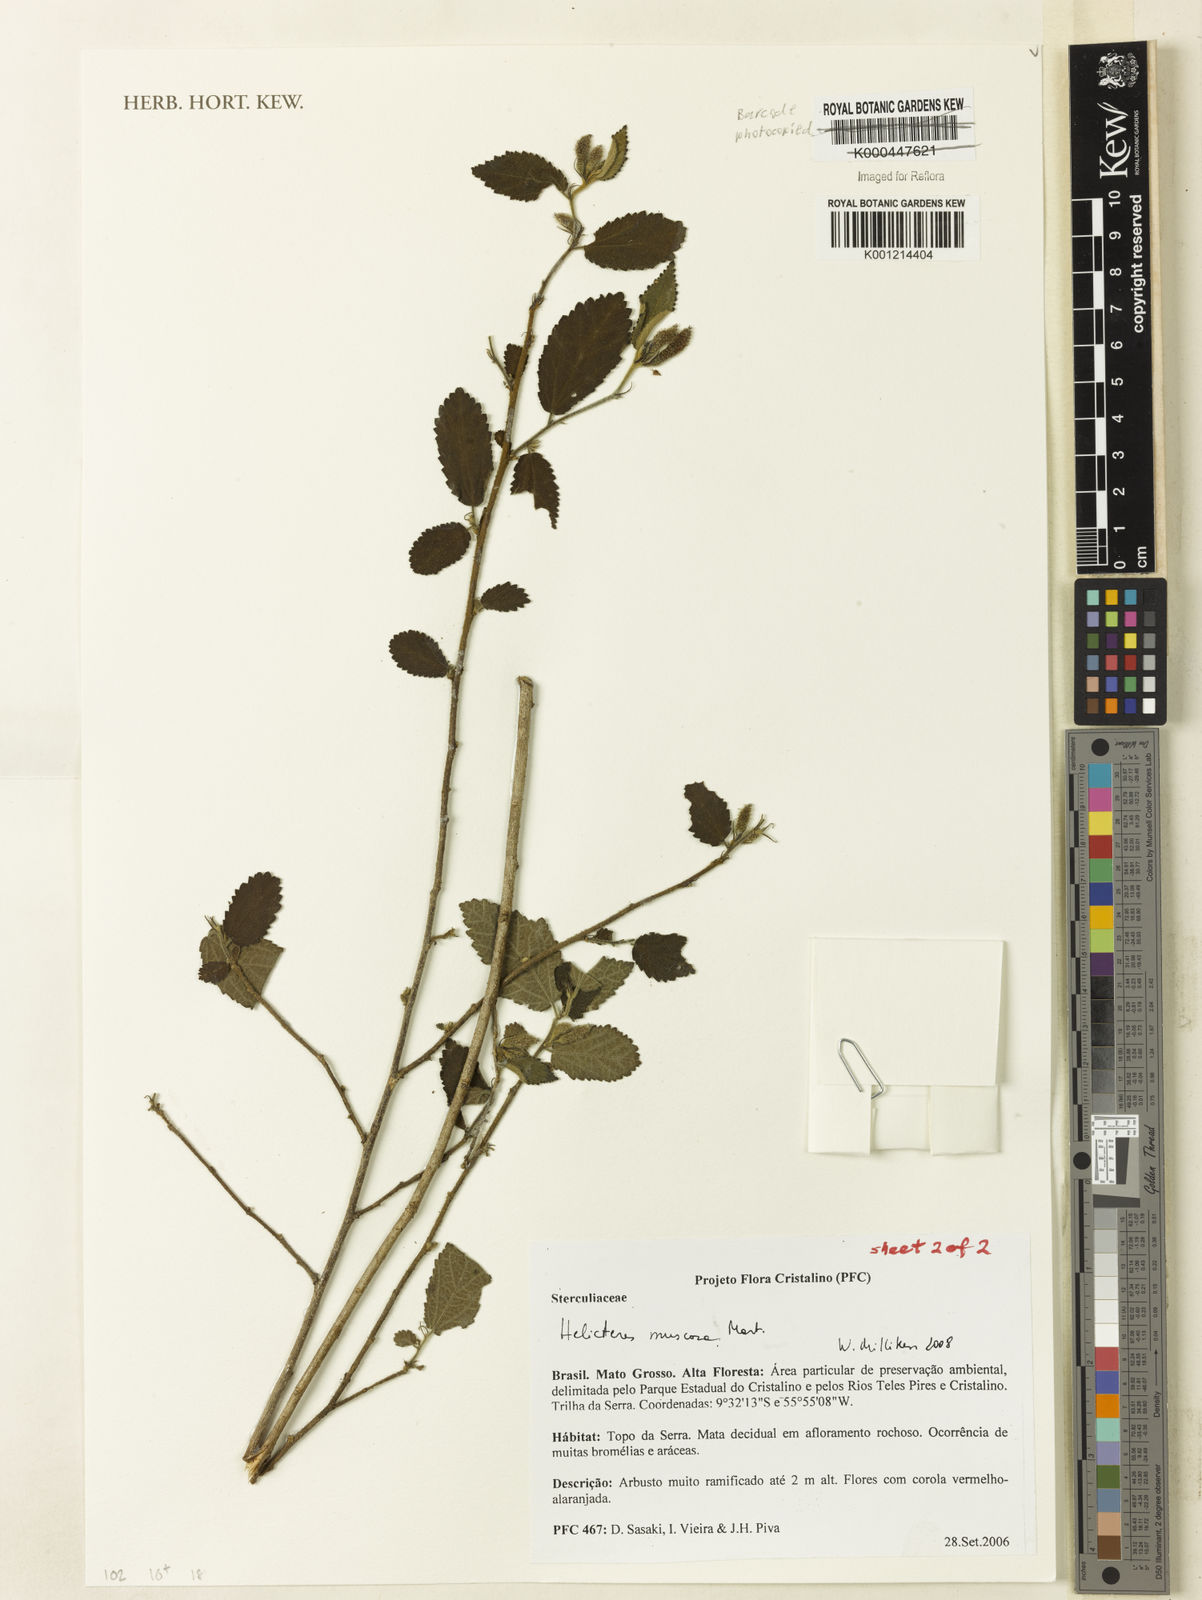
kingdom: Plantae
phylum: Tracheophyta
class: Magnoliopsida
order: Malvales
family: Malvaceae
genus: Helicteres
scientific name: Helicteres muscosa
